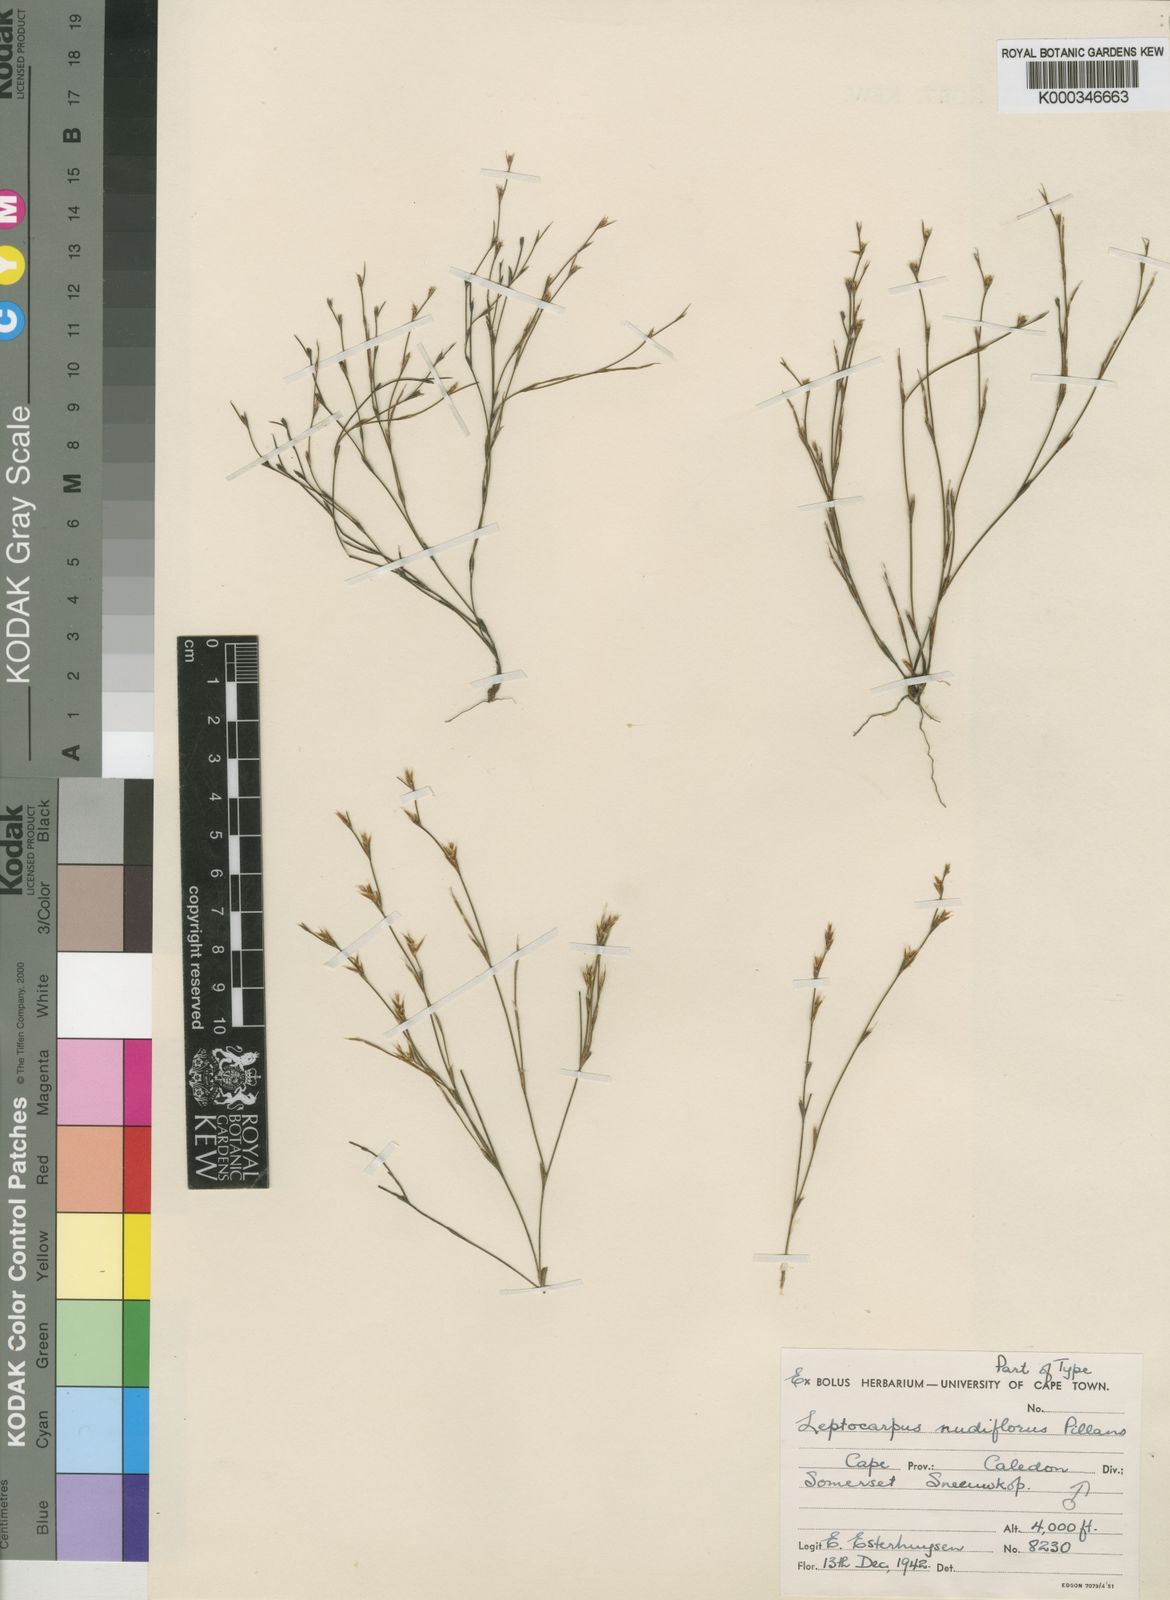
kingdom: Plantae
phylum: Tracheophyta
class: Liliopsida
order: Poales
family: Restionaceae
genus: Restio
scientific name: Restio nudiflorus
